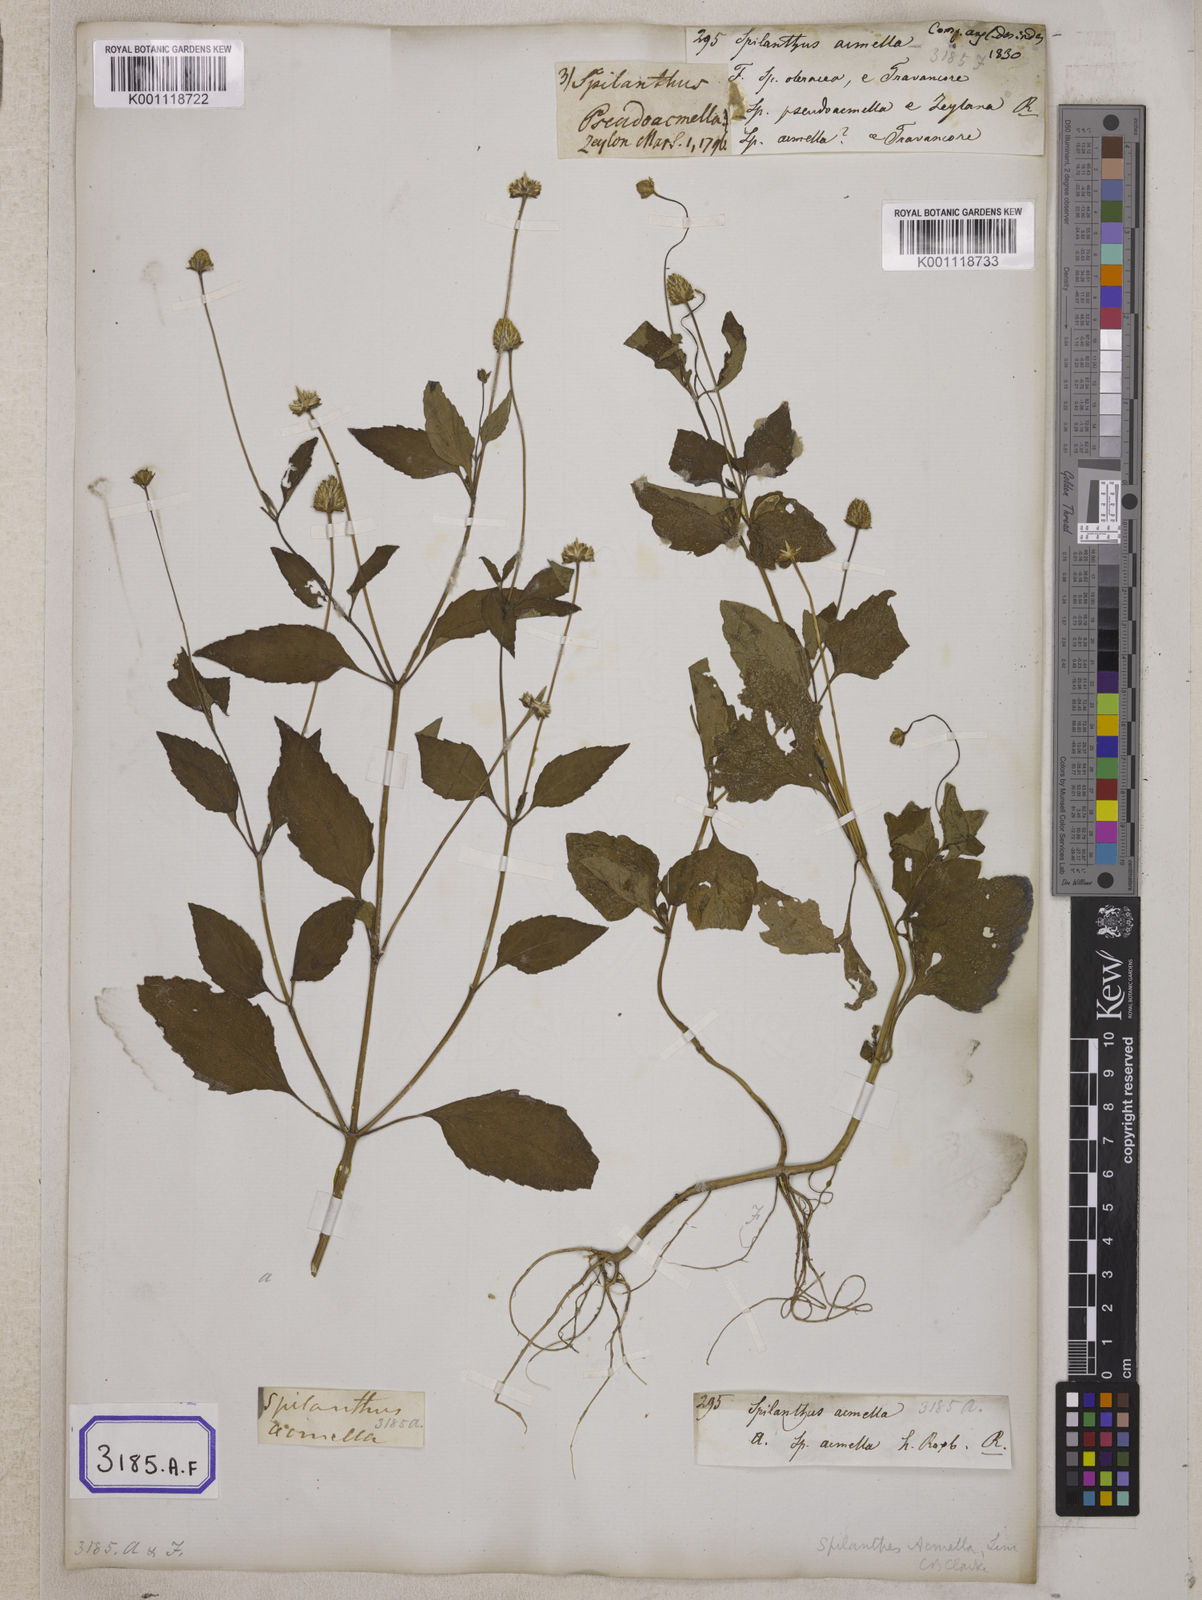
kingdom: Plantae
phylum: Tracheophyta
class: Magnoliopsida
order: Asterales
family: Asteraceae
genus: Blainvillea
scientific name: Blainvillea acmella
